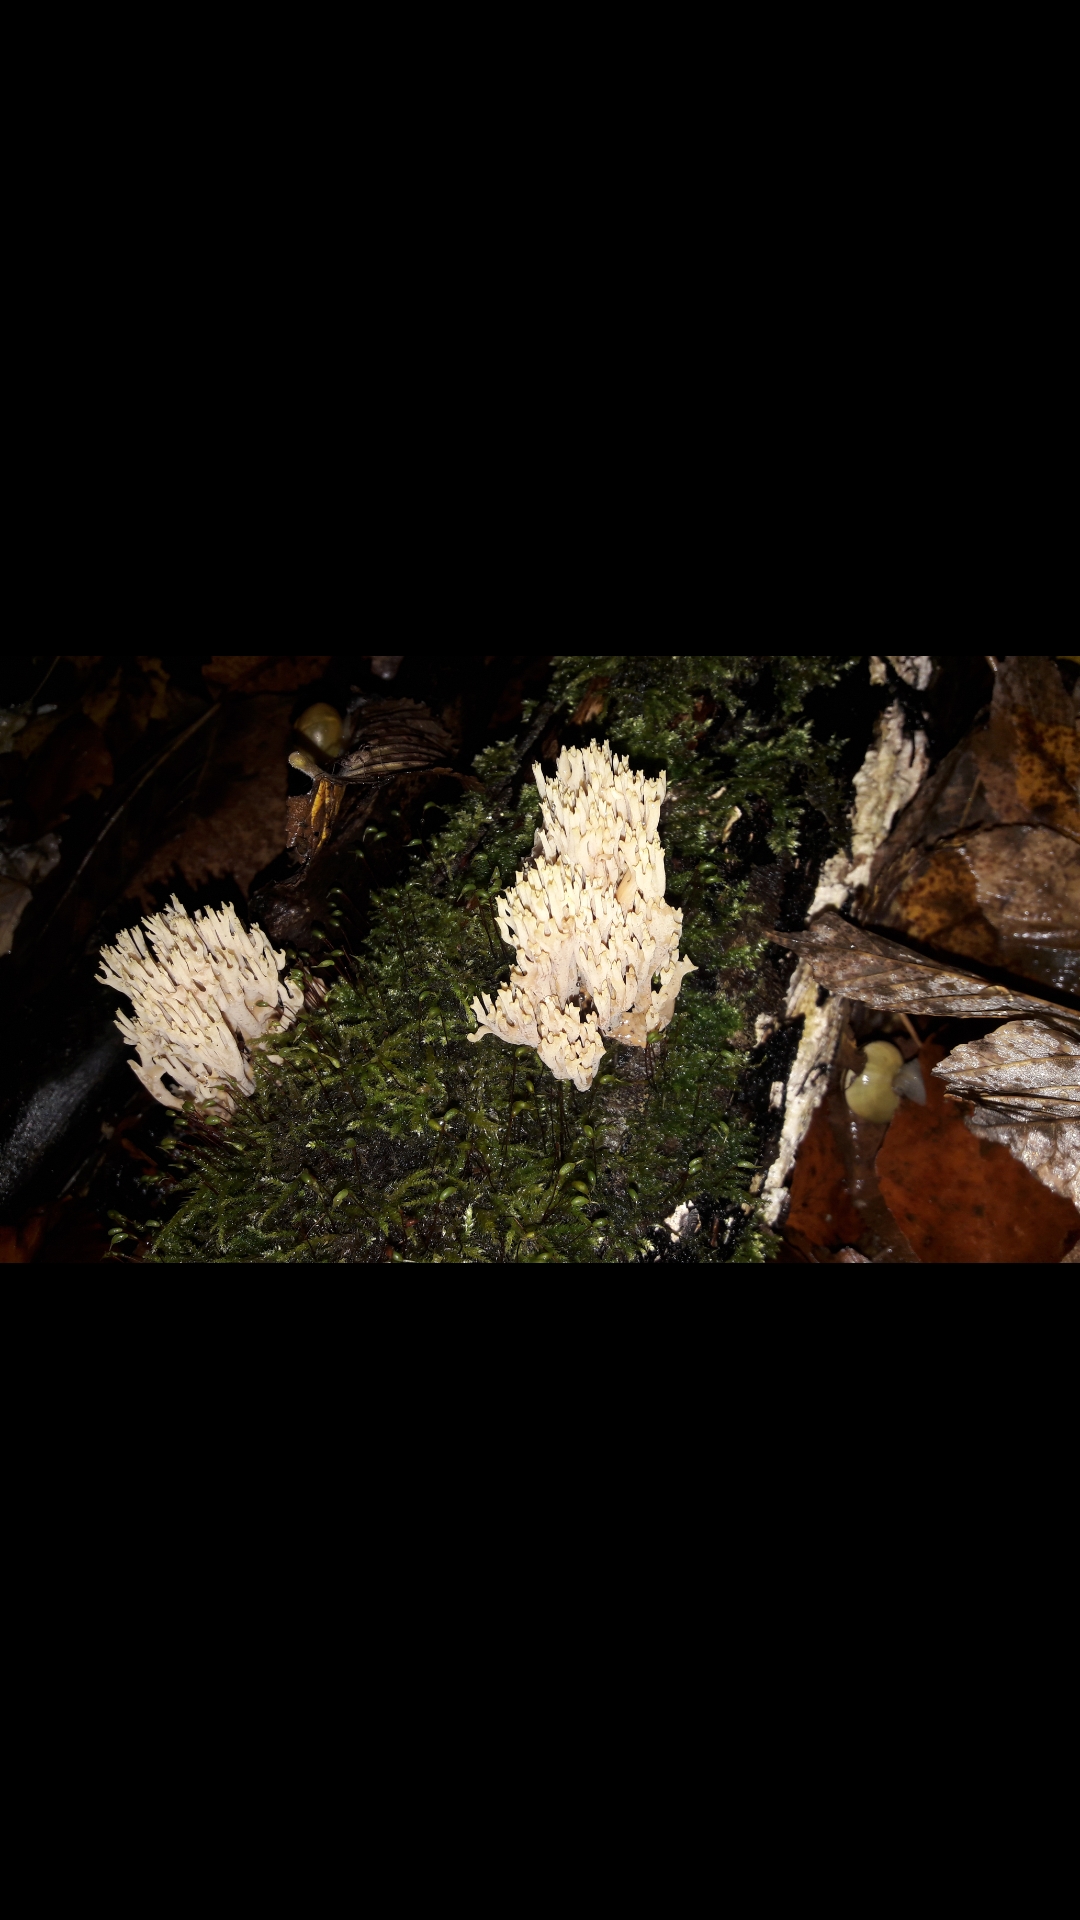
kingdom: Fungi
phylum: Basidiomycota
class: Agaricomycetes
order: Gomphales
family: Gomphaceae
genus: Ramaria
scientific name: Ramaria stricta
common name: rank koralsvamp
